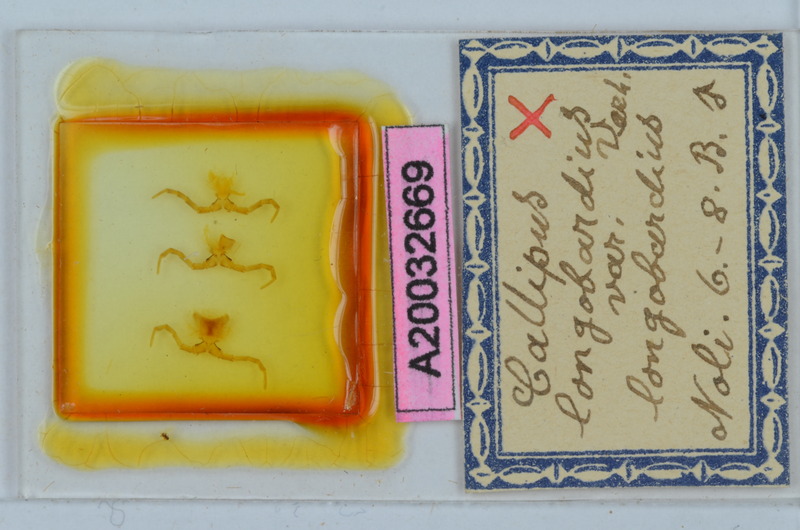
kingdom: Animalia
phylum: Arthropoda
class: Diplopoda
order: Callipodida
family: Callipodidae
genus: Callipus
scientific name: Callipus foetidissimus
